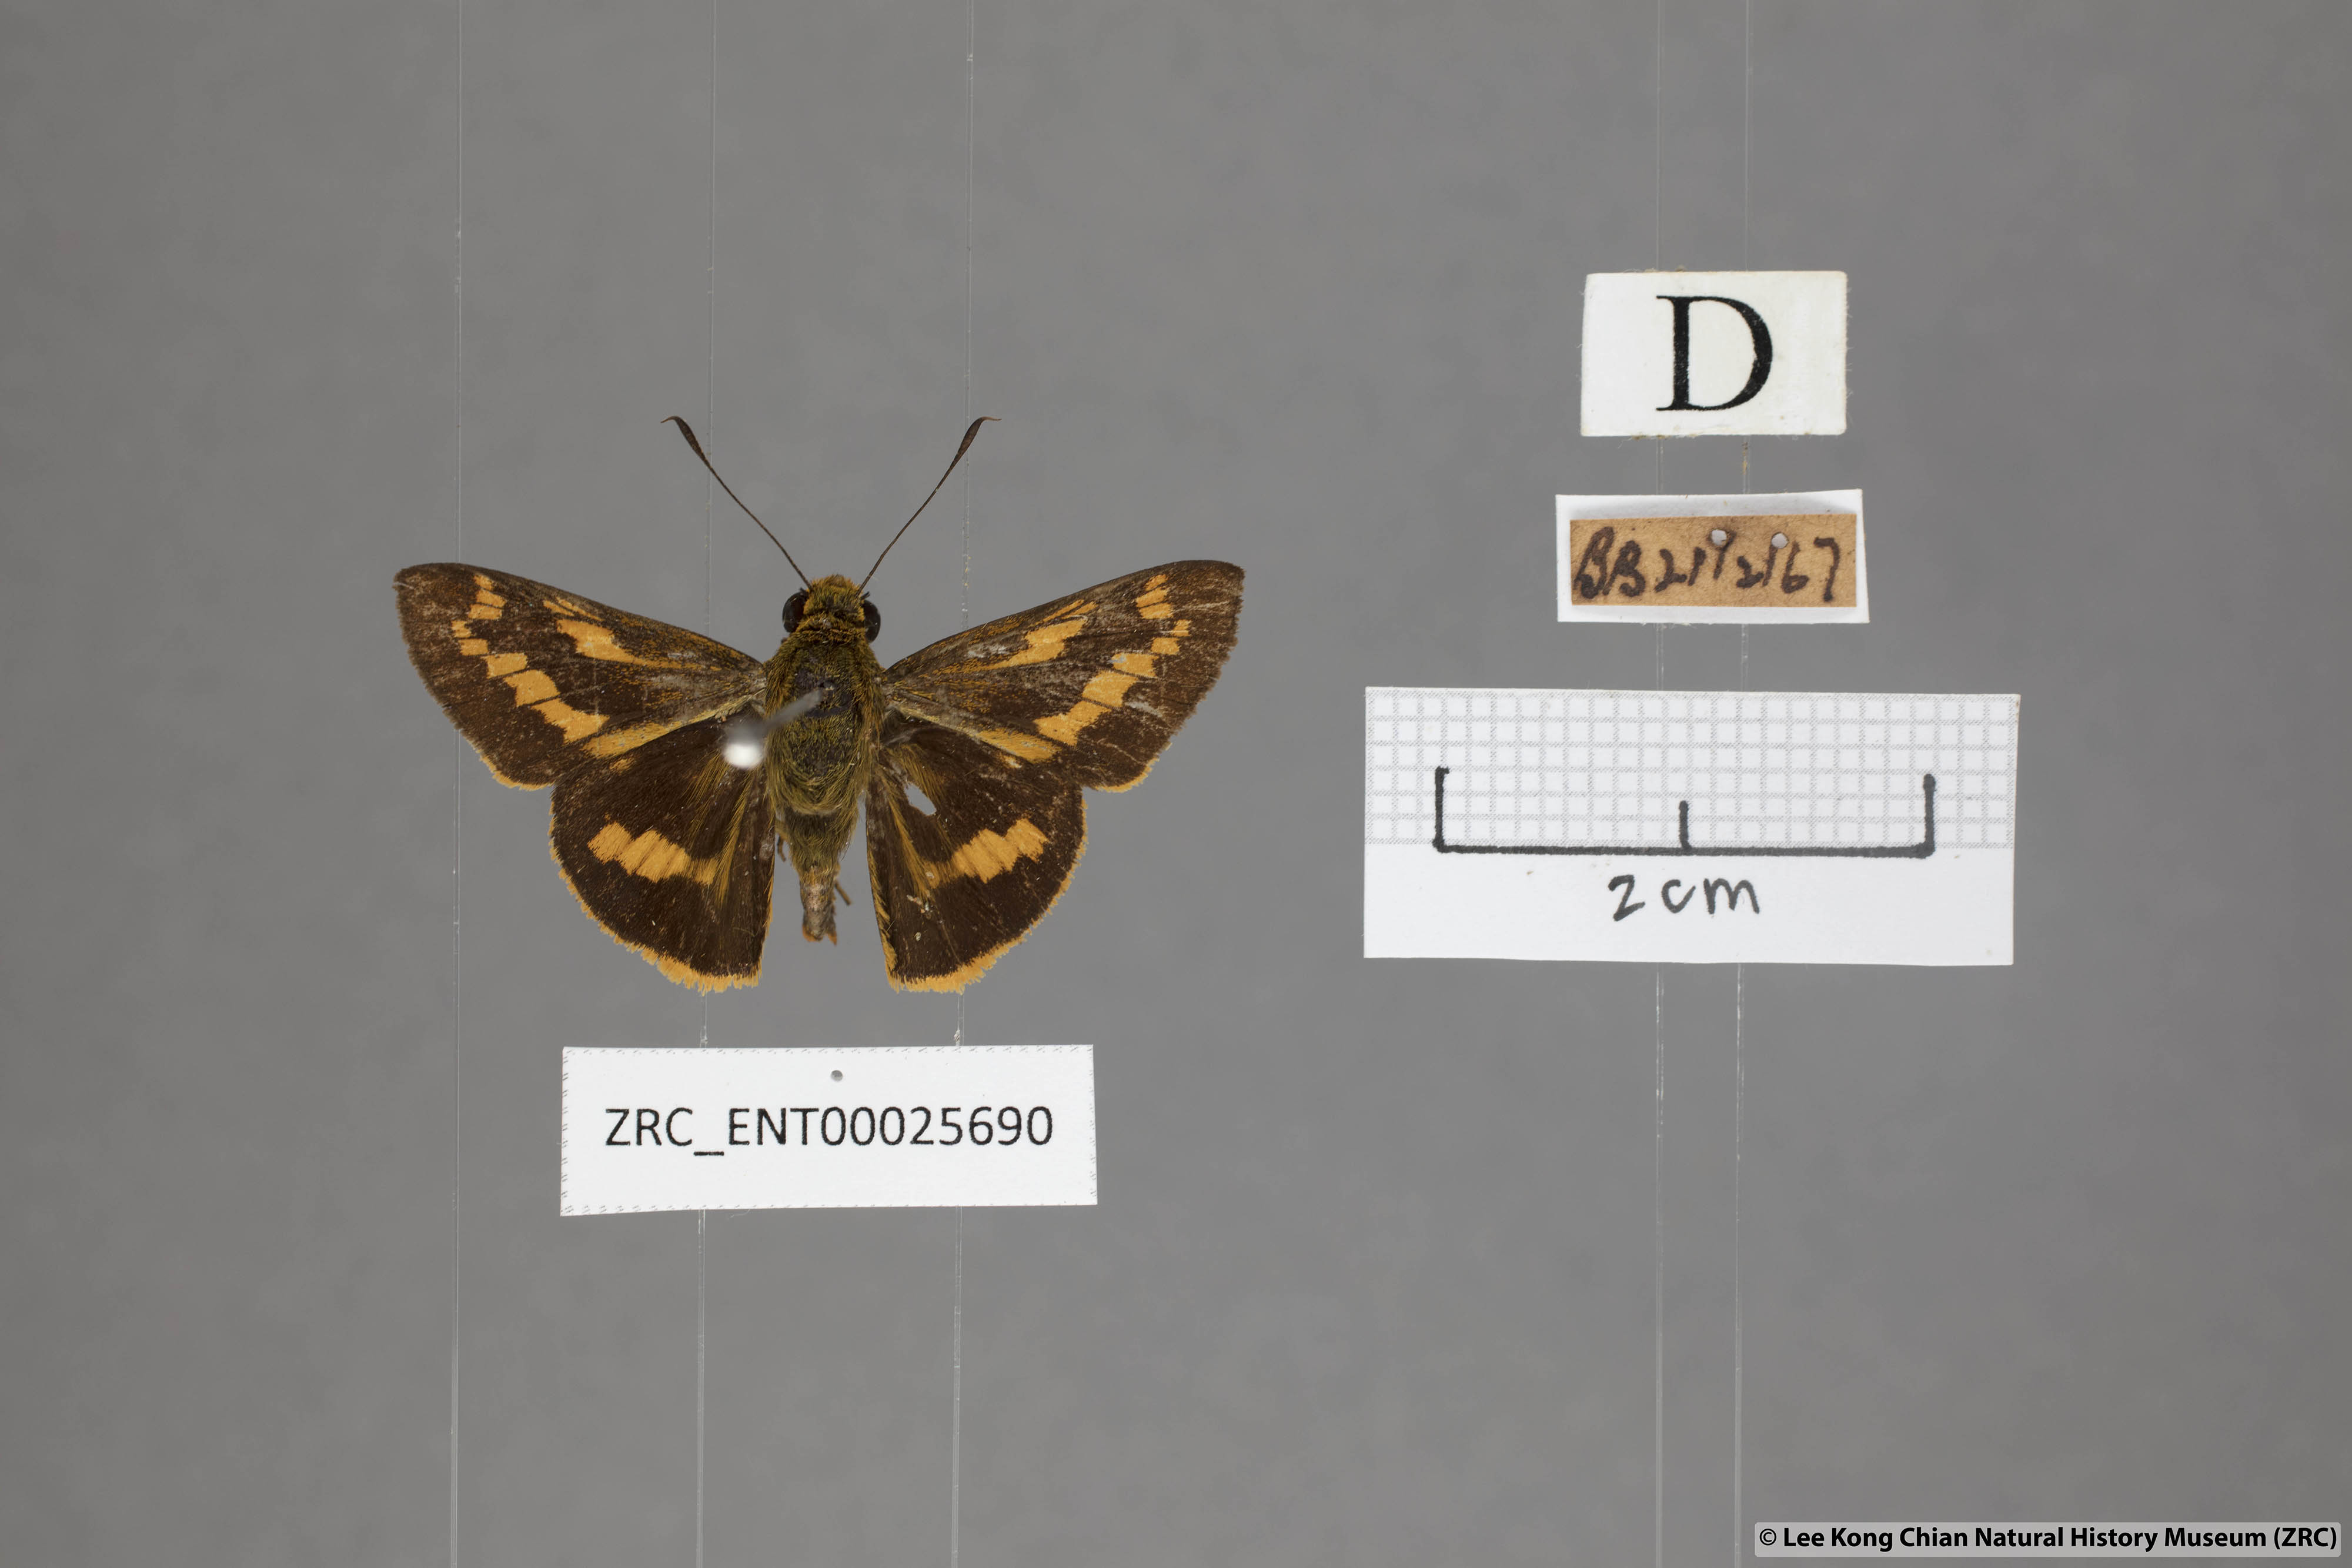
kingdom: Animalia
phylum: Arthropoda
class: Insecta
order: Lepidoptera
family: Hesperiidae
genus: Telicota
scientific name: Telicota ohara
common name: Dark palm dart
